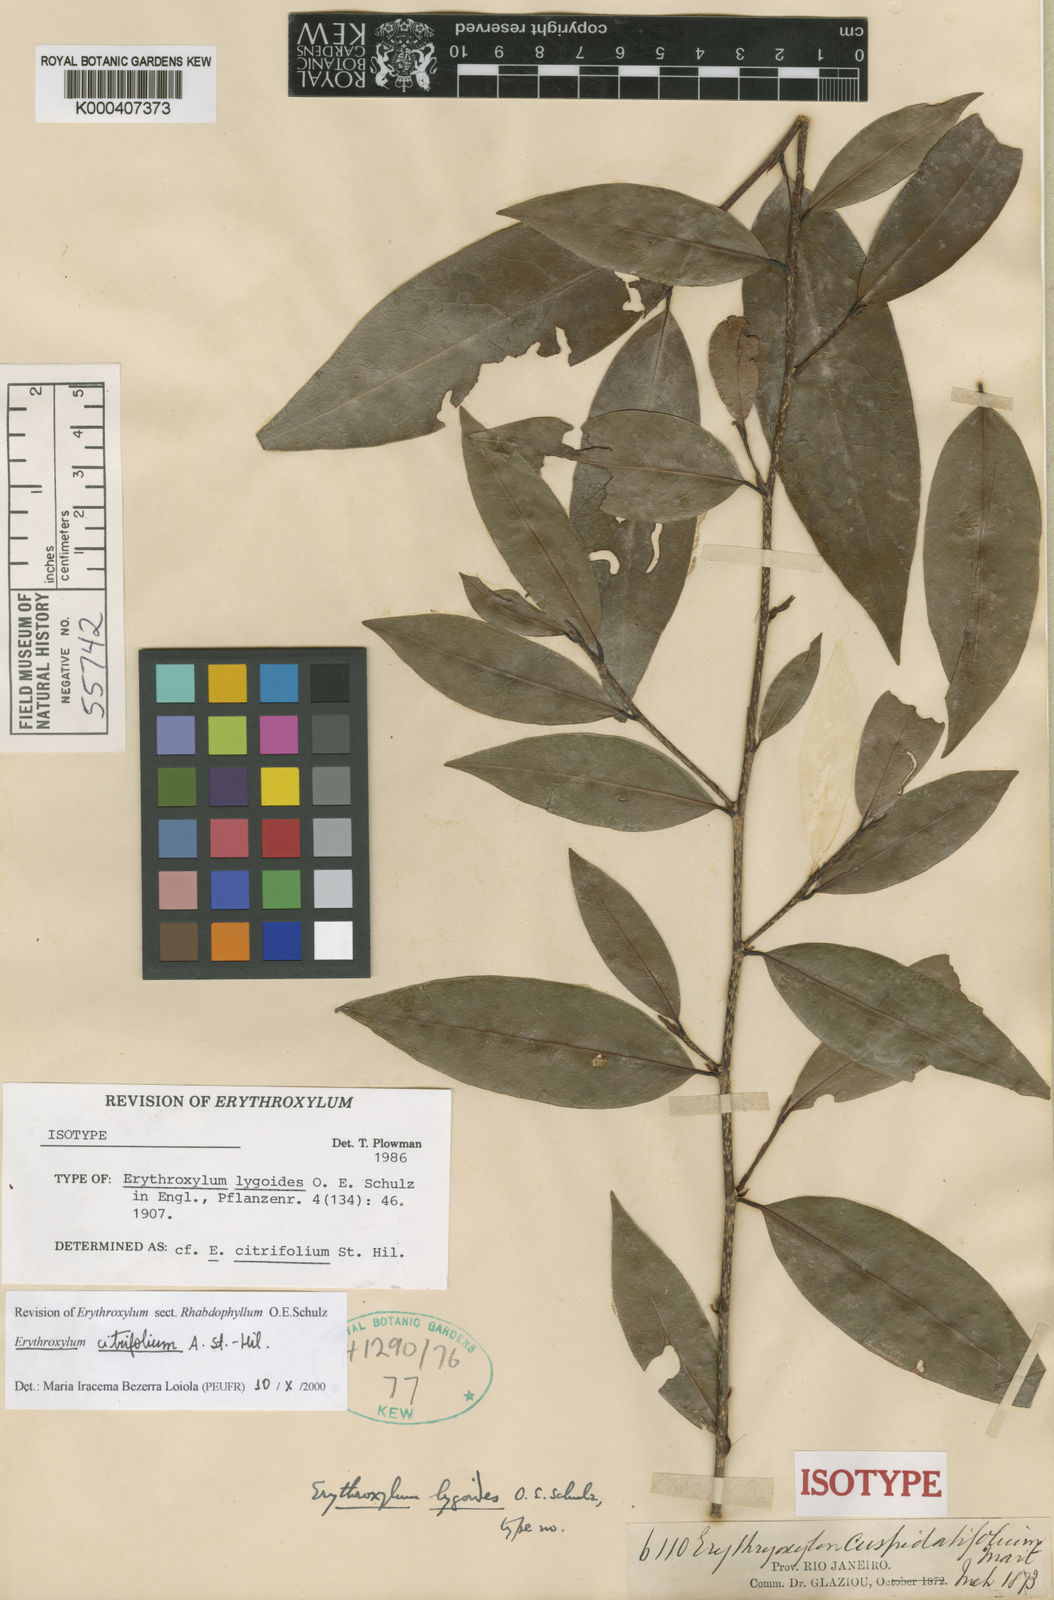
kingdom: Plantae
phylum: Tracheophyta
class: Magnoliopsida
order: Malpighiales
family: Erythroxylaceae
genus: Erythroxylum
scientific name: Erythroxylum citrifolium
